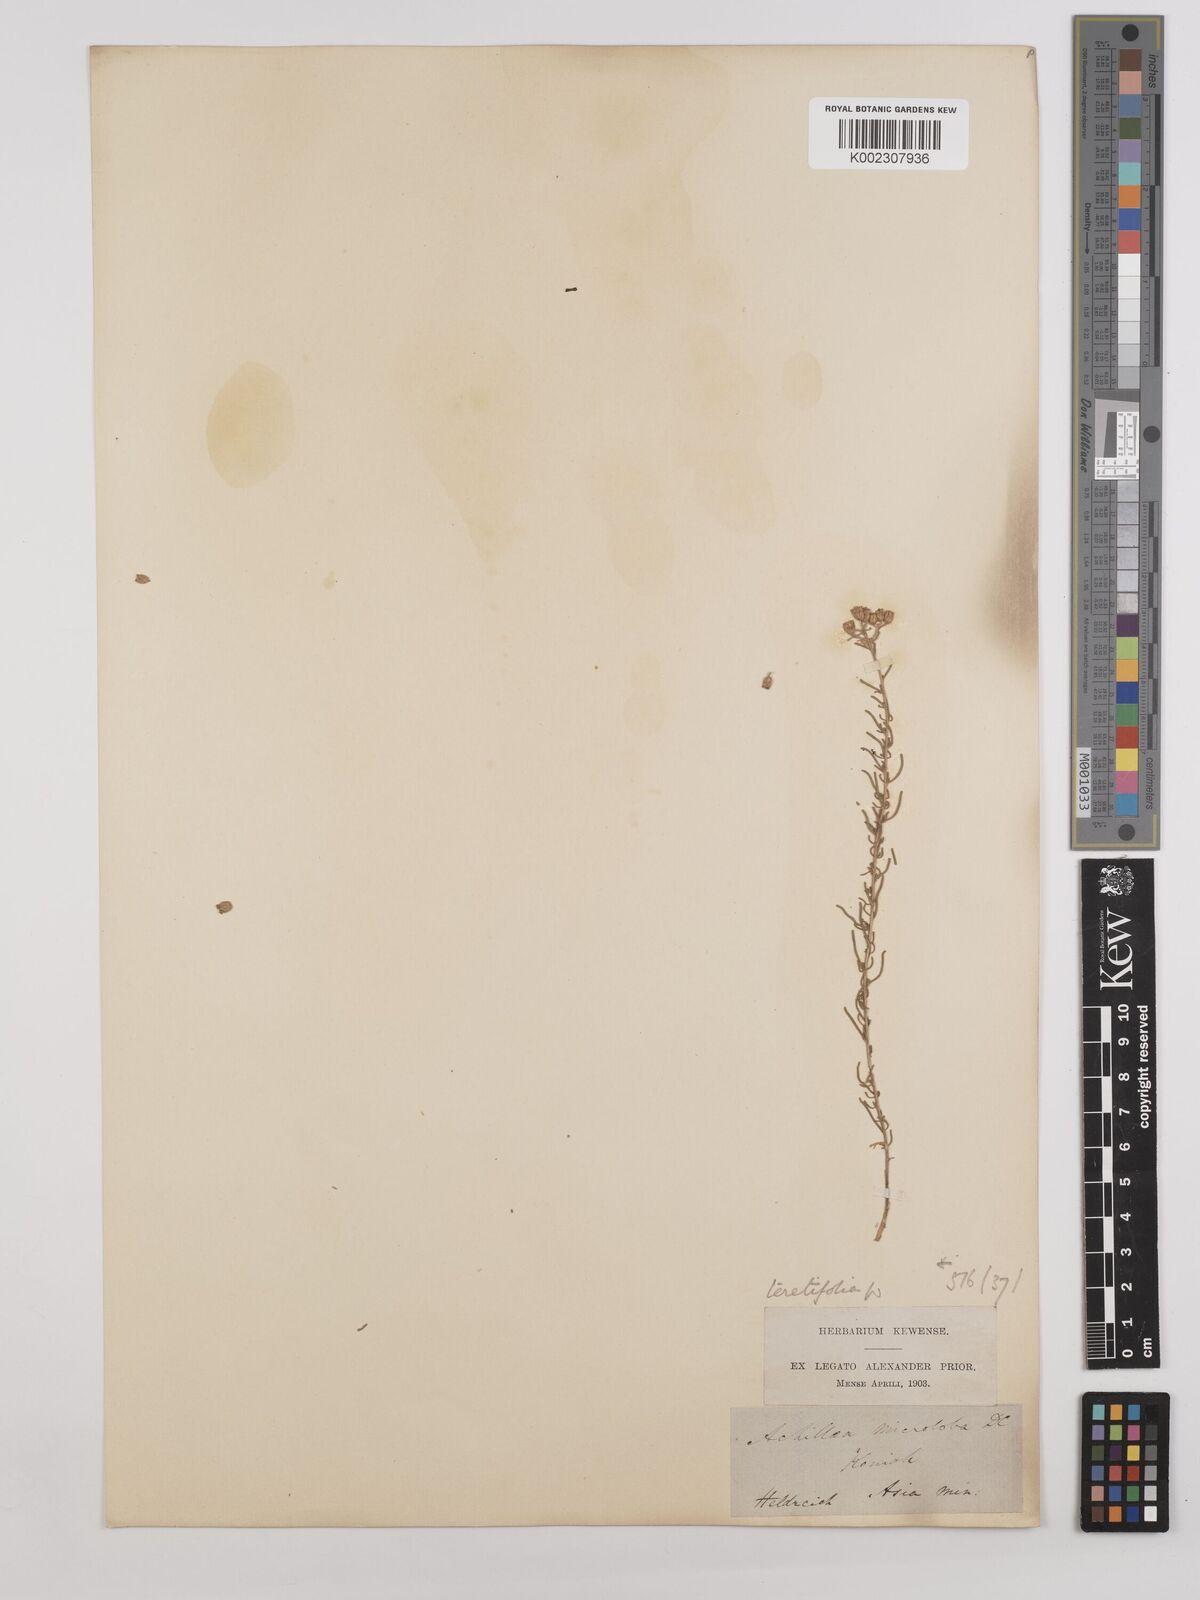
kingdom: Plantae
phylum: Tracheophyta
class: Magnoliopsida
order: Asterales
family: Asteraceae
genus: Achillea
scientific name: Achillea teretifolia
